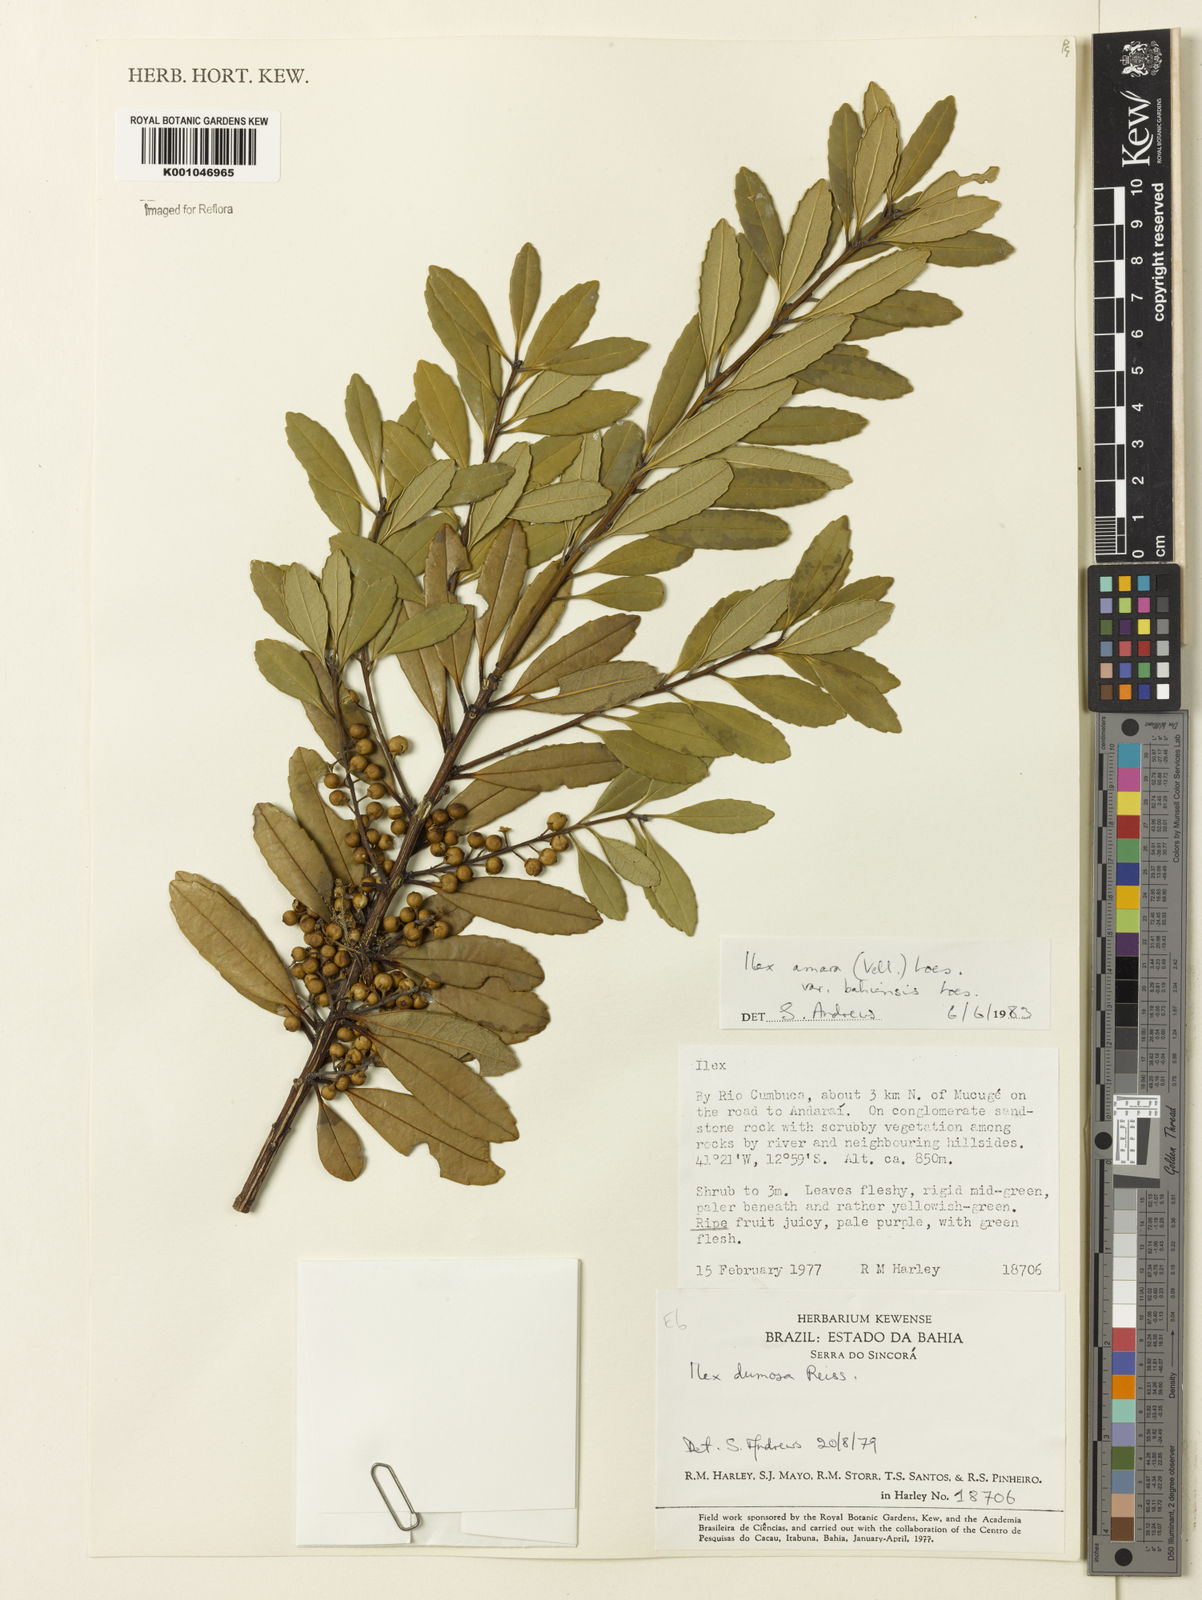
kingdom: Plantae
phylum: Tracheophyta
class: Magnoliopsida
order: Aquifoliales
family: Aquifoliaceae
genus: Ilex
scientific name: Ilex dumosa
